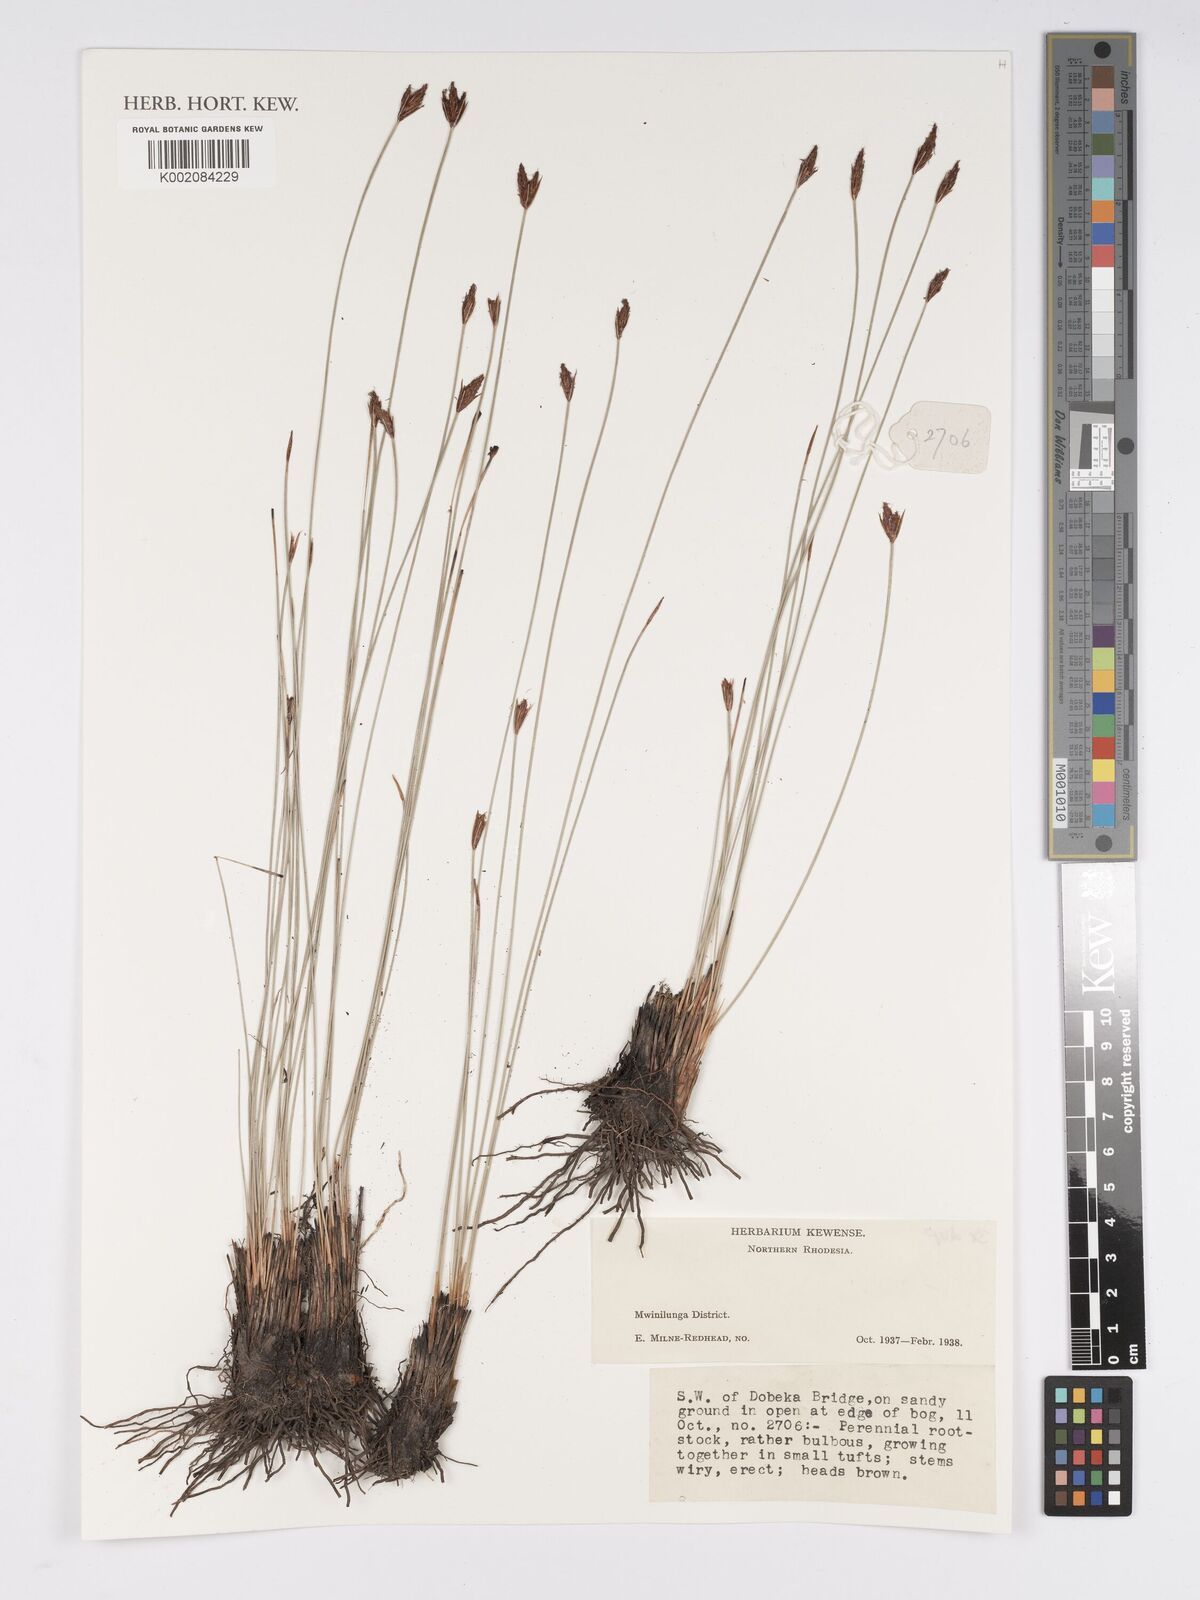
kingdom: Plantae
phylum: Tracheophyta
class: Liliopsida
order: Poales
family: Cyperaceae
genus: Bulbostylis
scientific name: Bulbostylis
